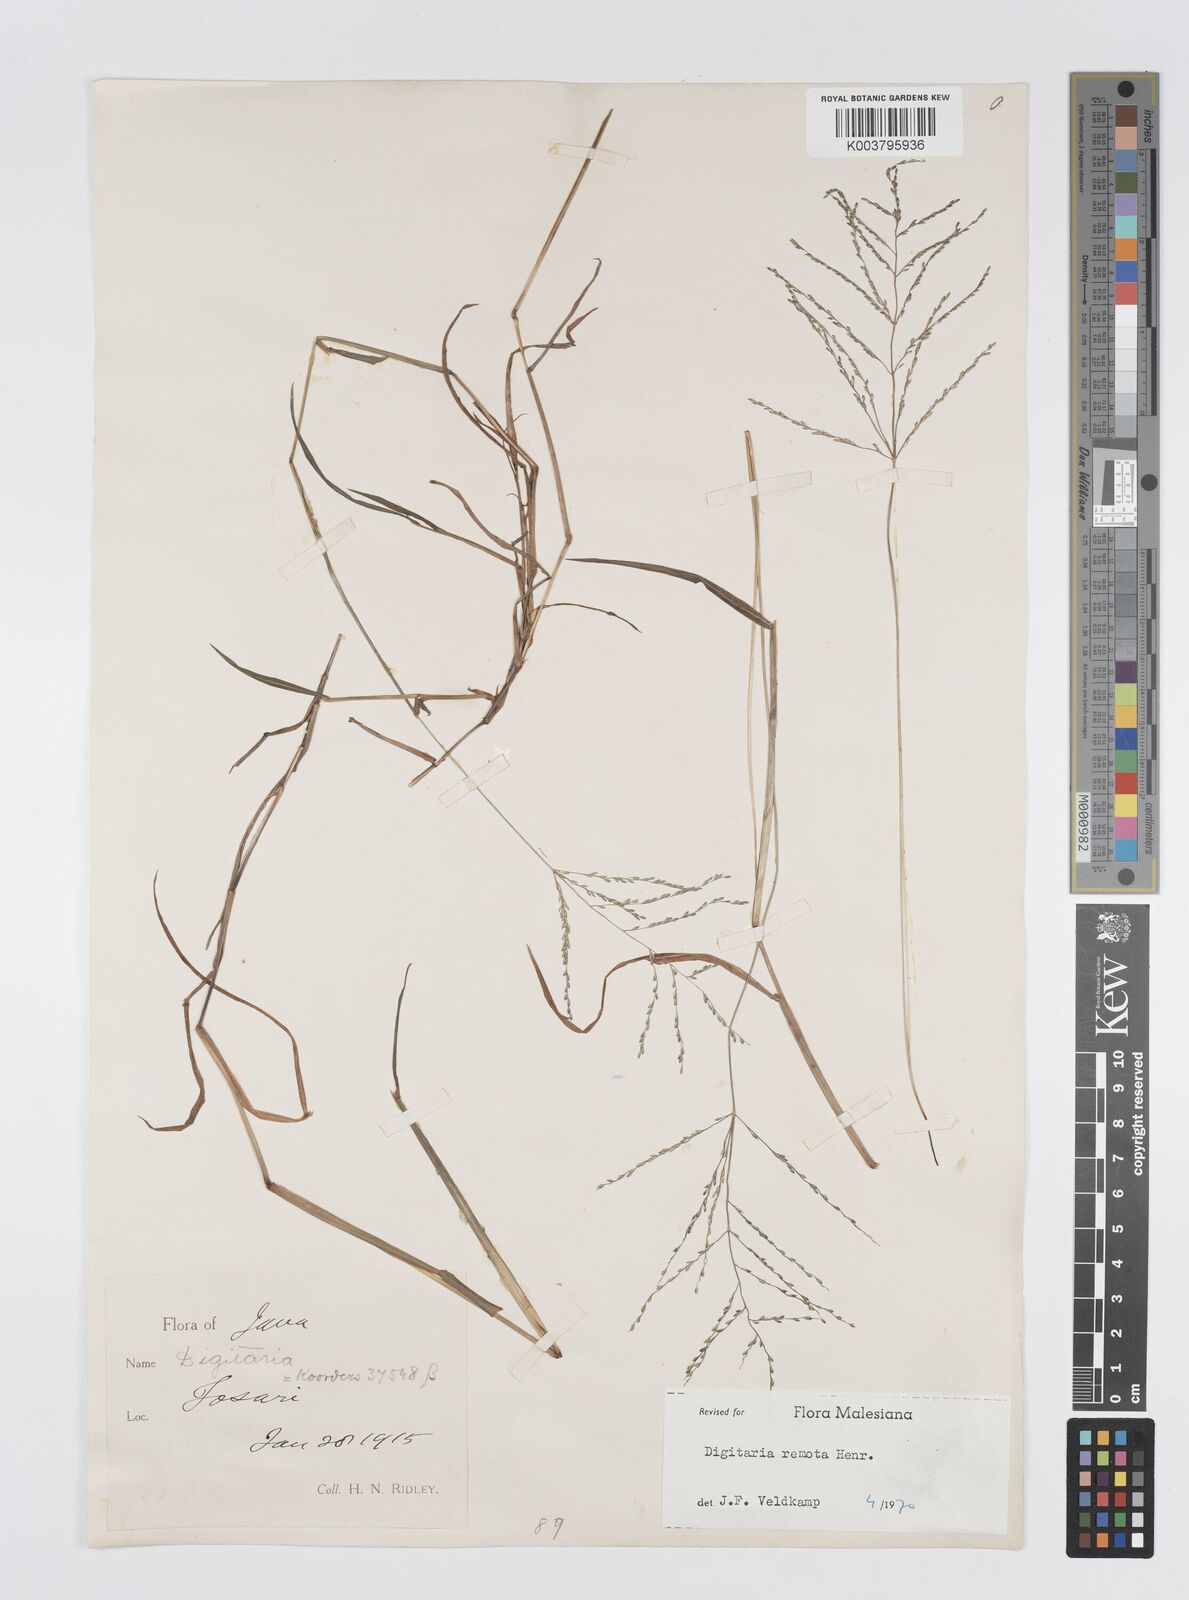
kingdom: Plantae
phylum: Tracheophyta
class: Liliopsida
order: Poales
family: Poaceae
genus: Digitaria
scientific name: Digitaria wallichiana
